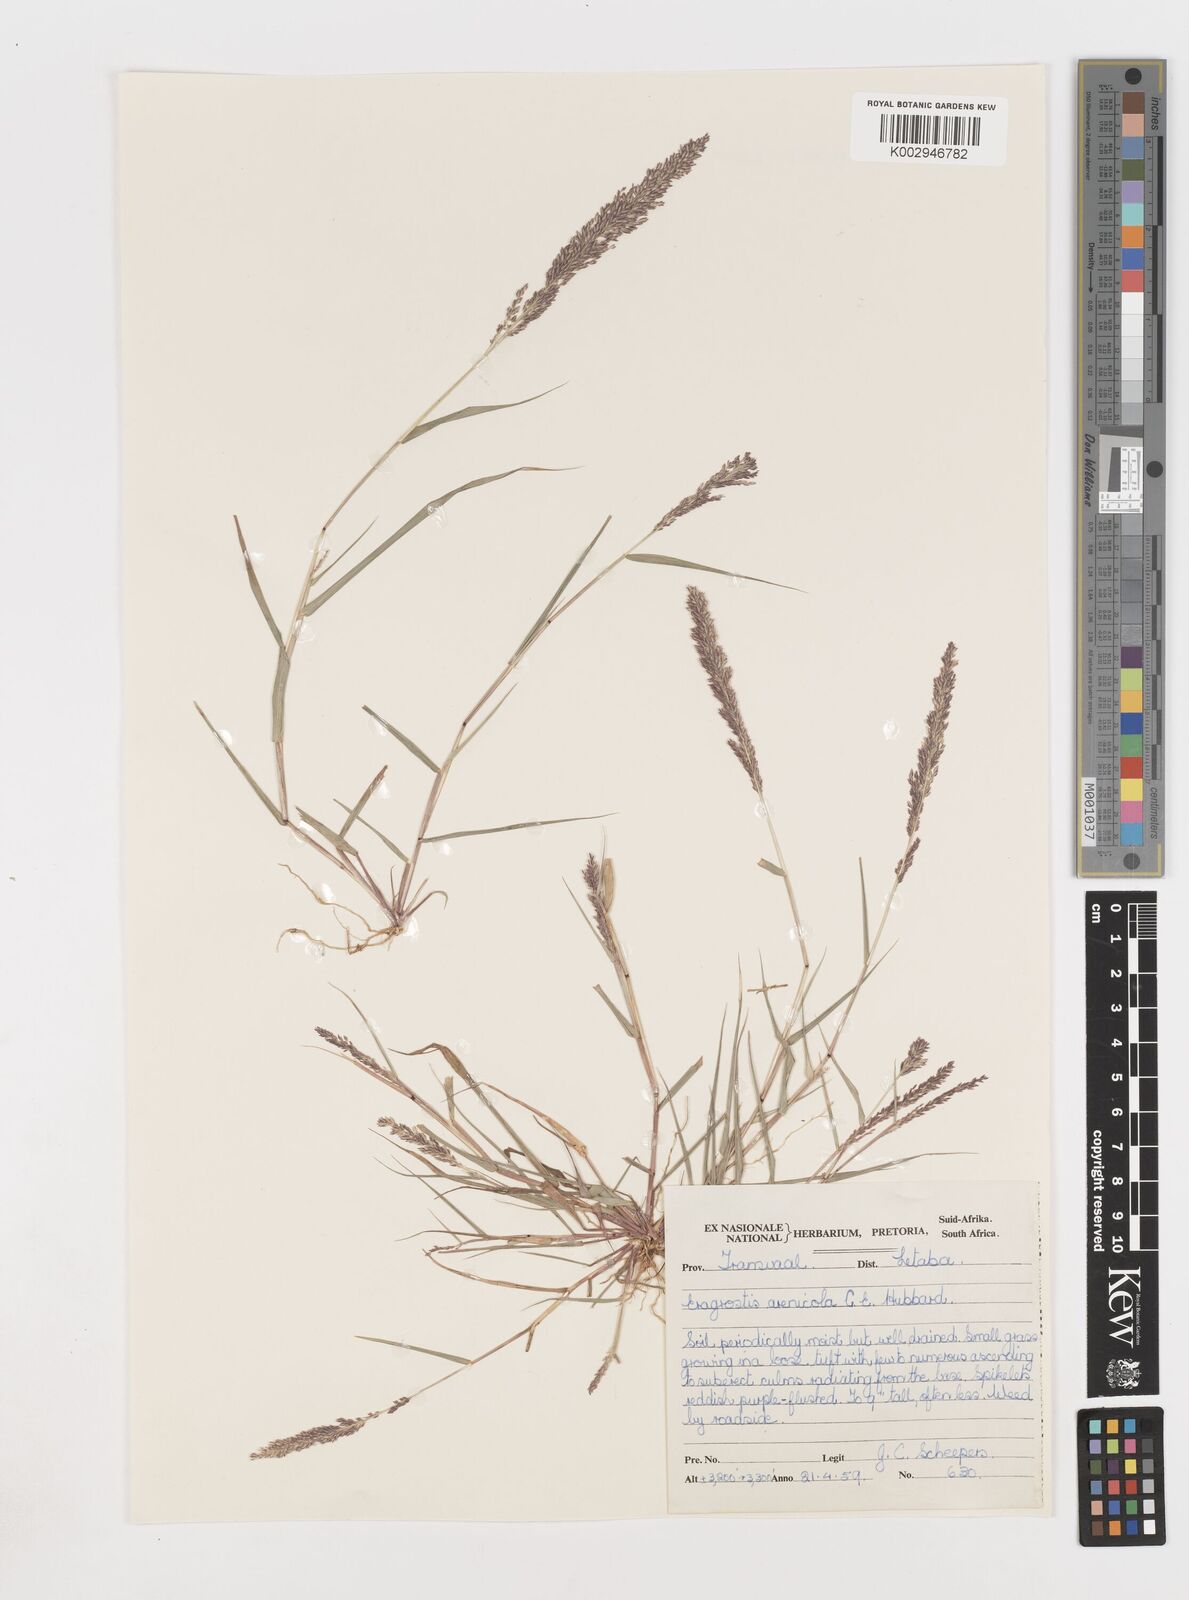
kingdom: Plantae
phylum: Tracheophyta
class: Liliopsida
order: Poales
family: Poaceae
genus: Eragrostis
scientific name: Eragrostis arenicola
